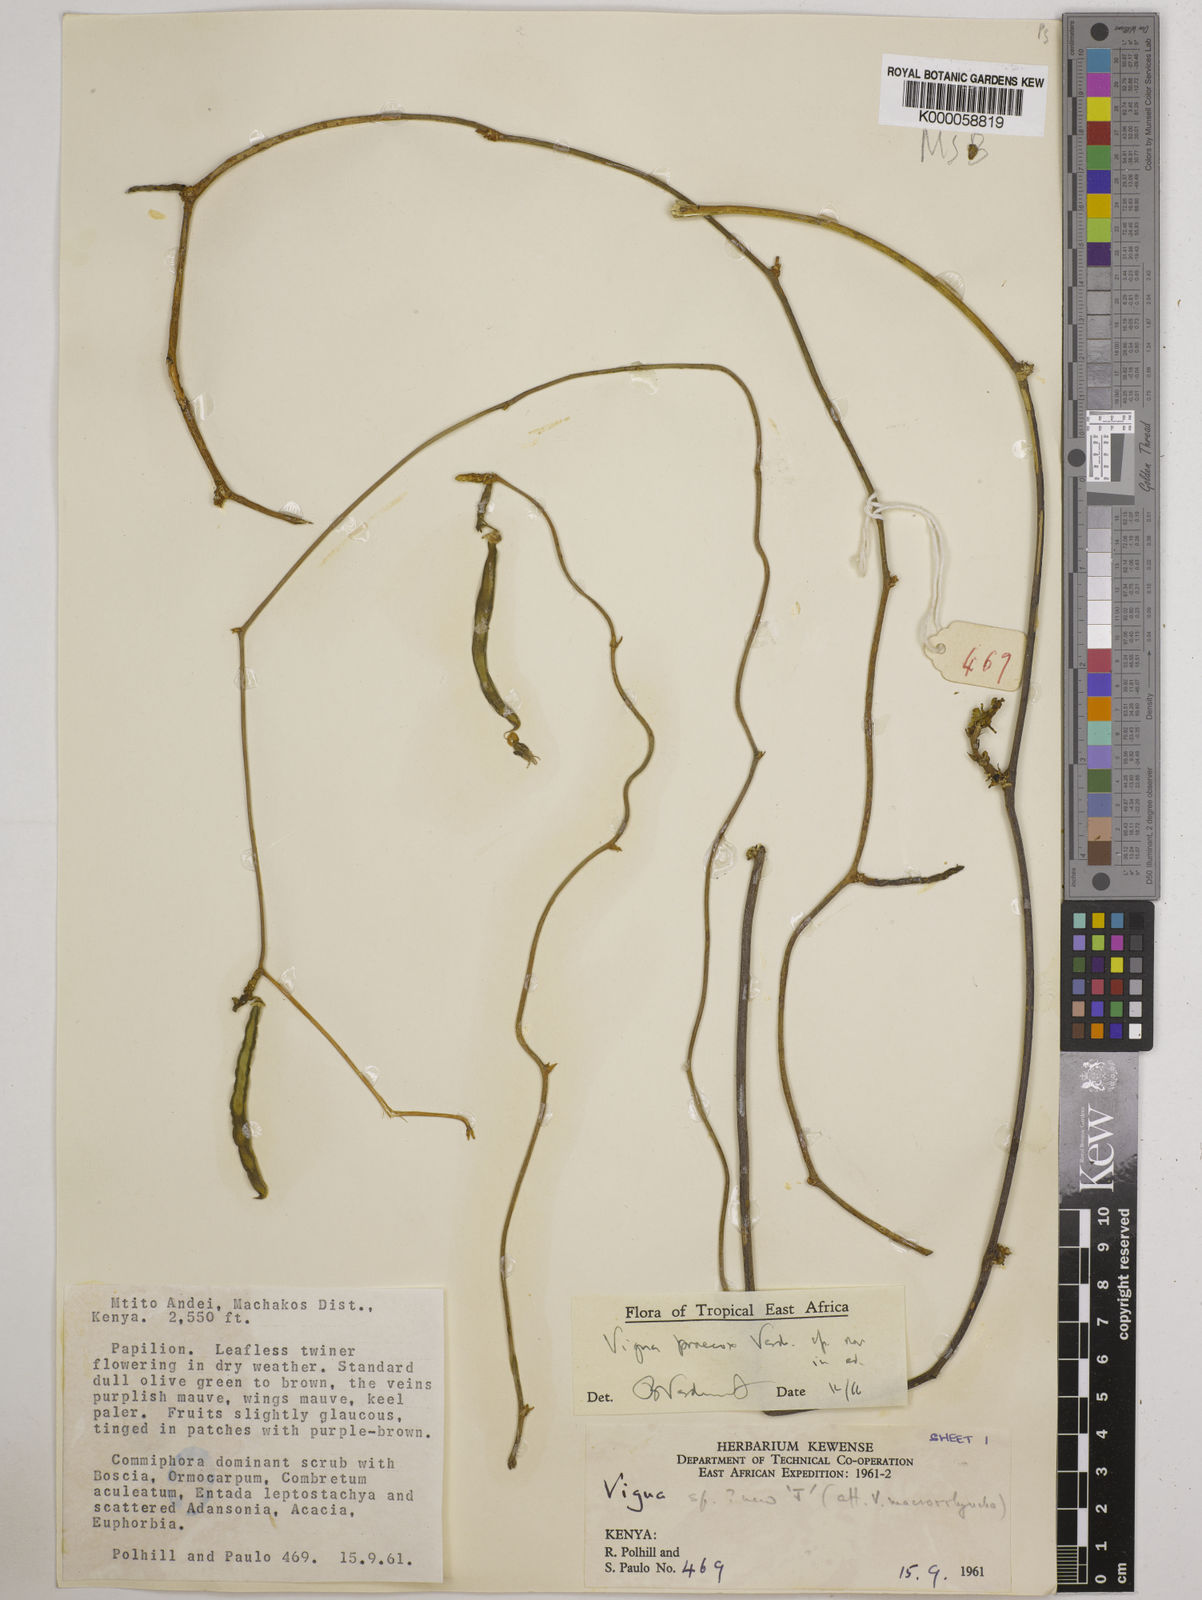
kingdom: Plantae
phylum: Tracheophyta
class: Magnoliopsida
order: Fabales
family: Fabaceae
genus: Wajira
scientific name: Wajira praecox
